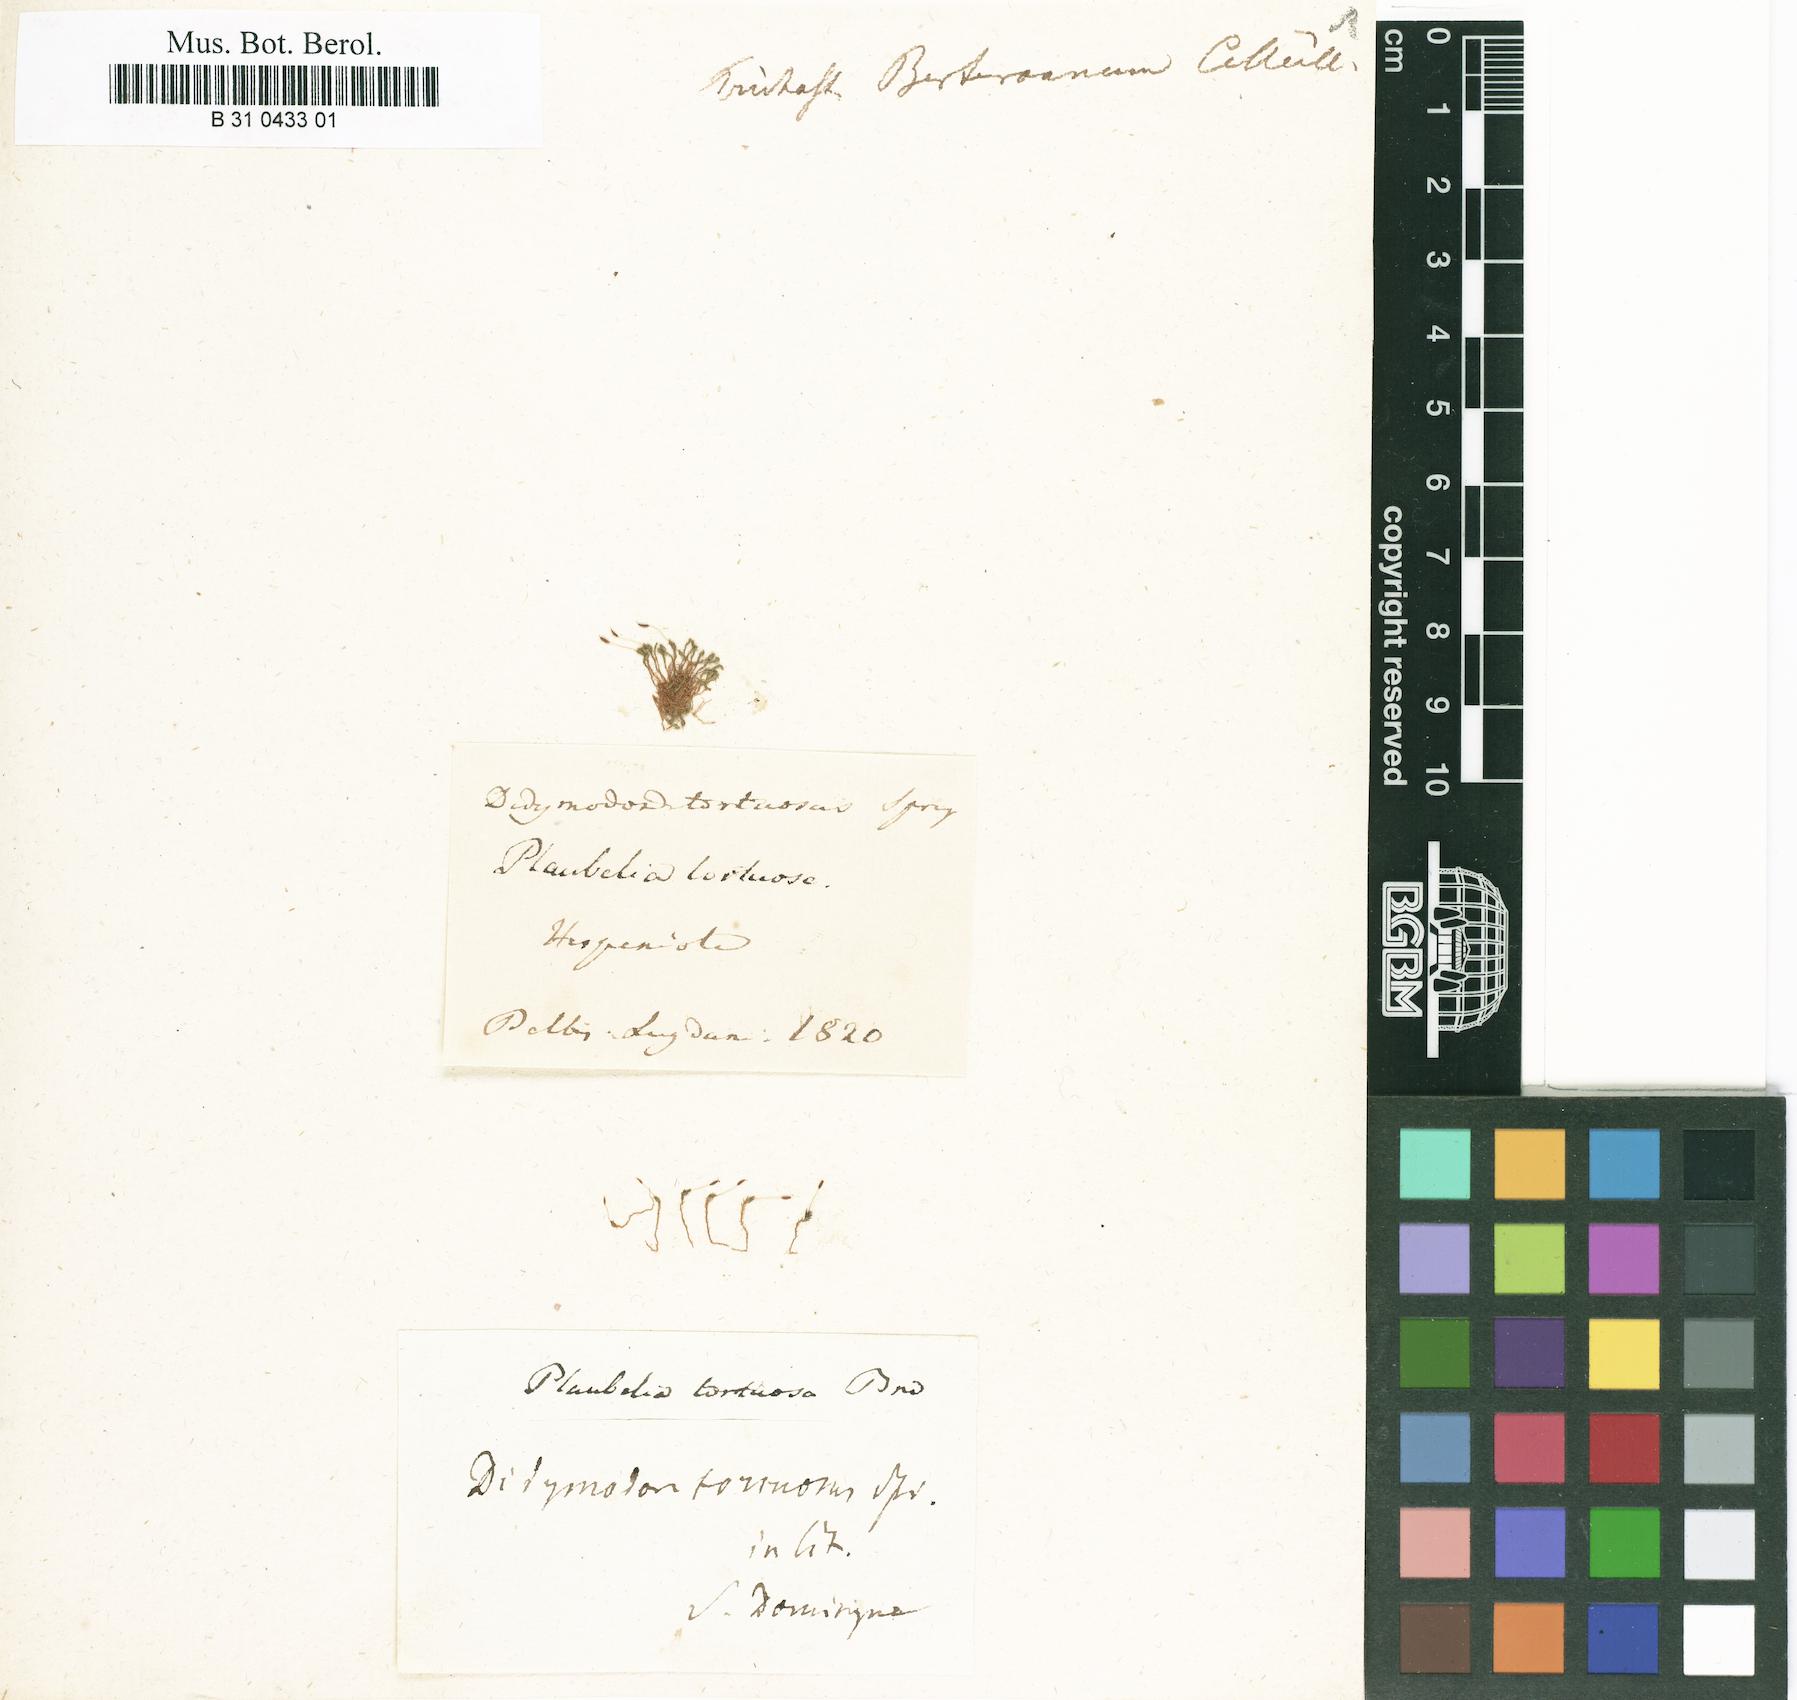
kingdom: Plantae
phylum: Bryophyta
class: Bryopsida
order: Pottiales
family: Pottiaceae
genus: Plaubelia
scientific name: Plaubelia sprengelii
